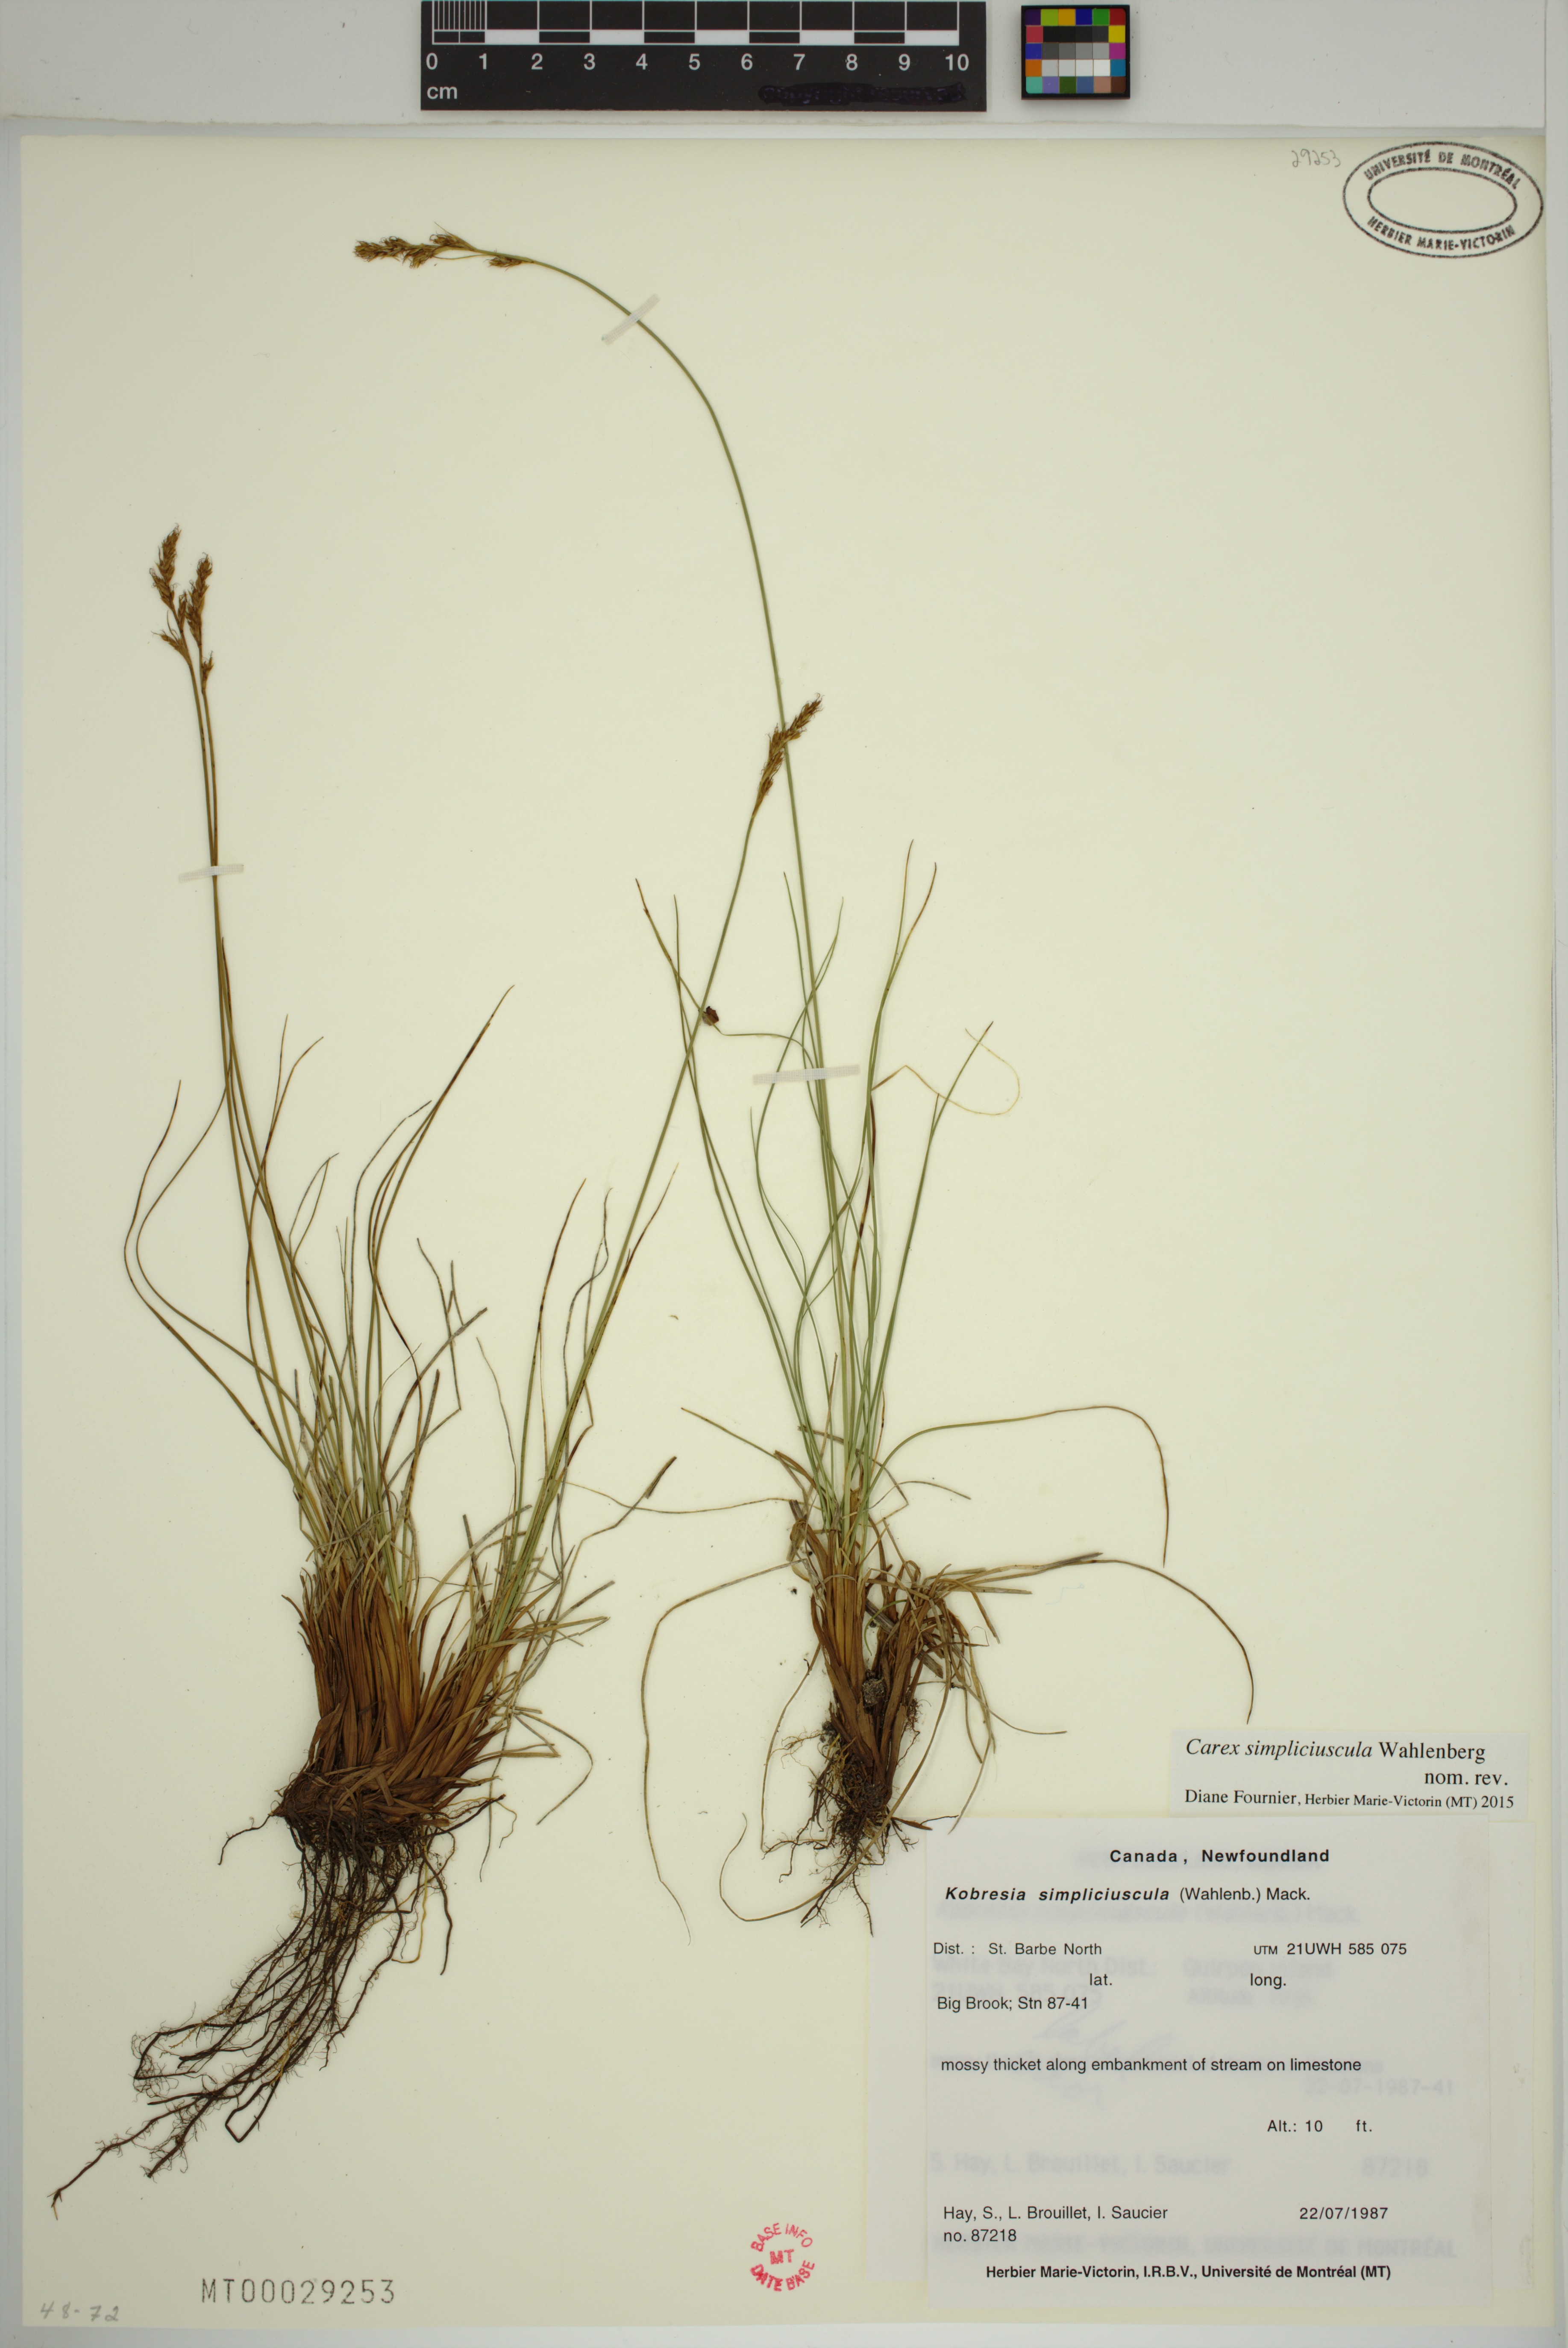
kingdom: Plantae
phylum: Tracheophyta
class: Liliopsida
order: Poales
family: Cyperaceae
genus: Carex
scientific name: Carex simpliciuscula
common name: Simple bog sedge
